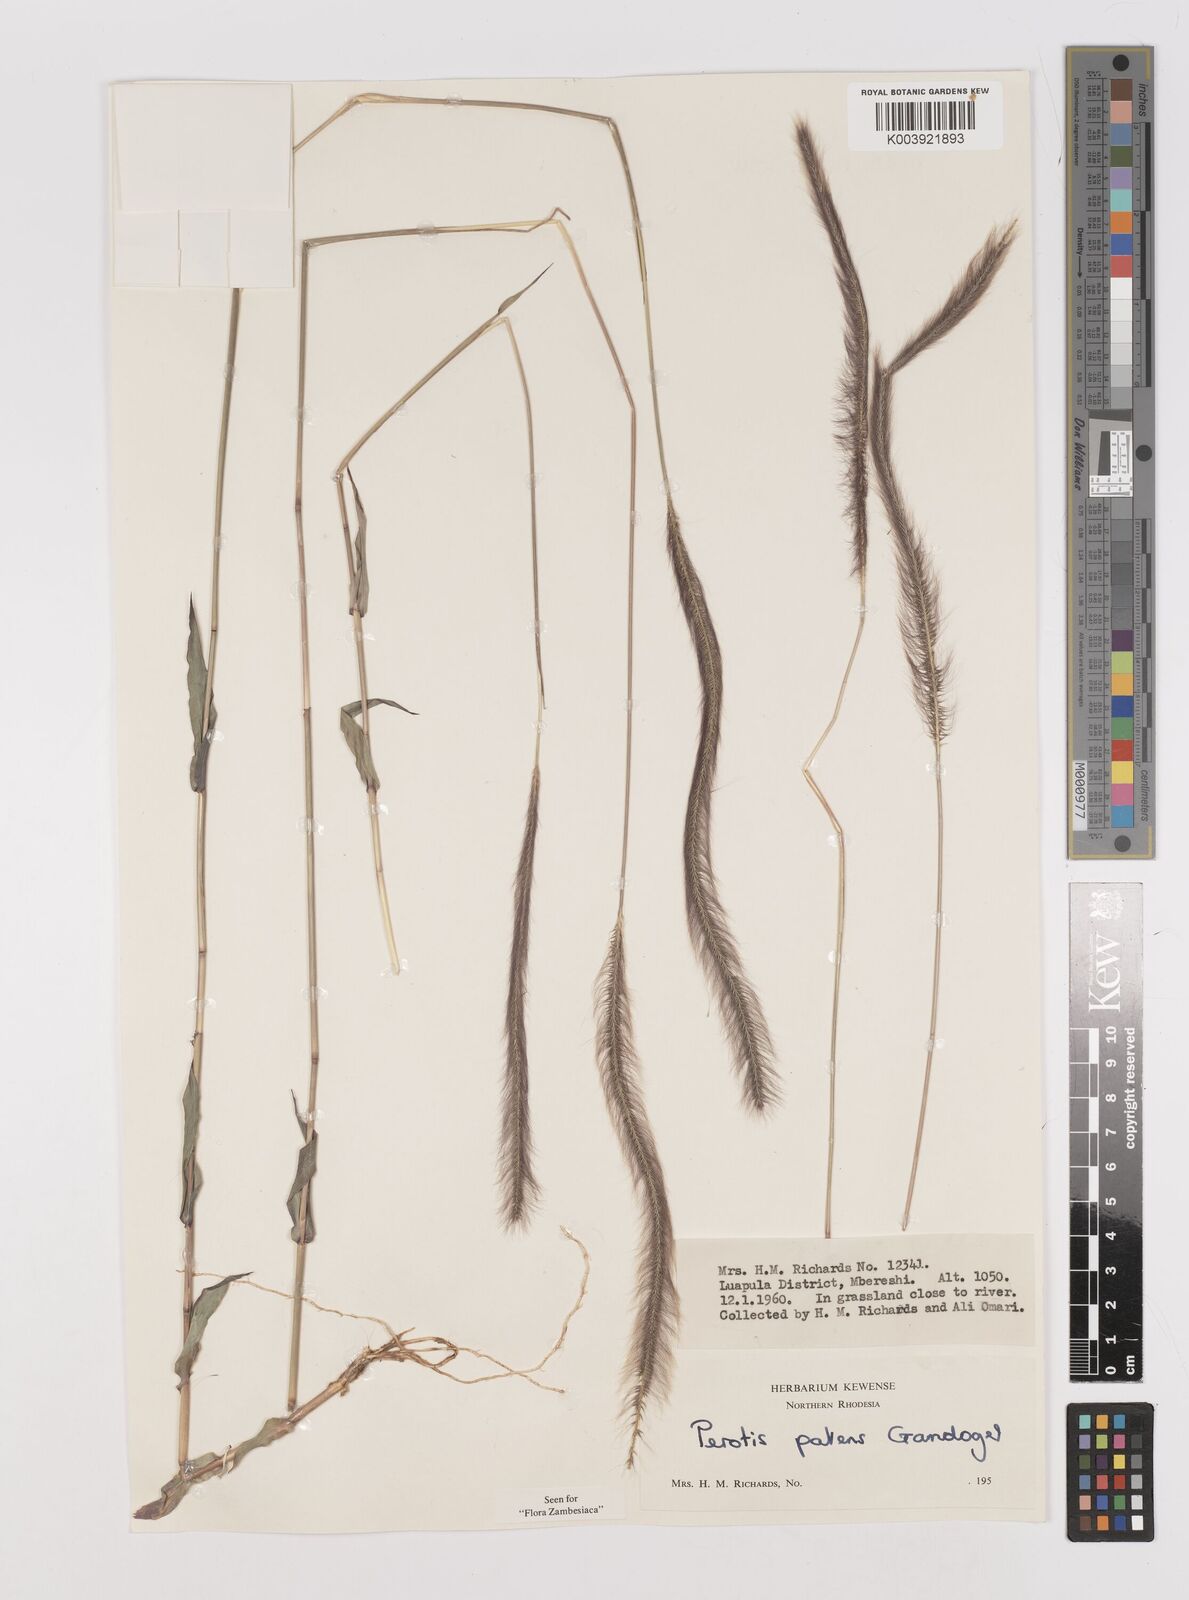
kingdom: Plantae
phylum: Tracheophyta
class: Liliopsida
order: Poales
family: Poaceae
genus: Perotis
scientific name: Perotis patens
